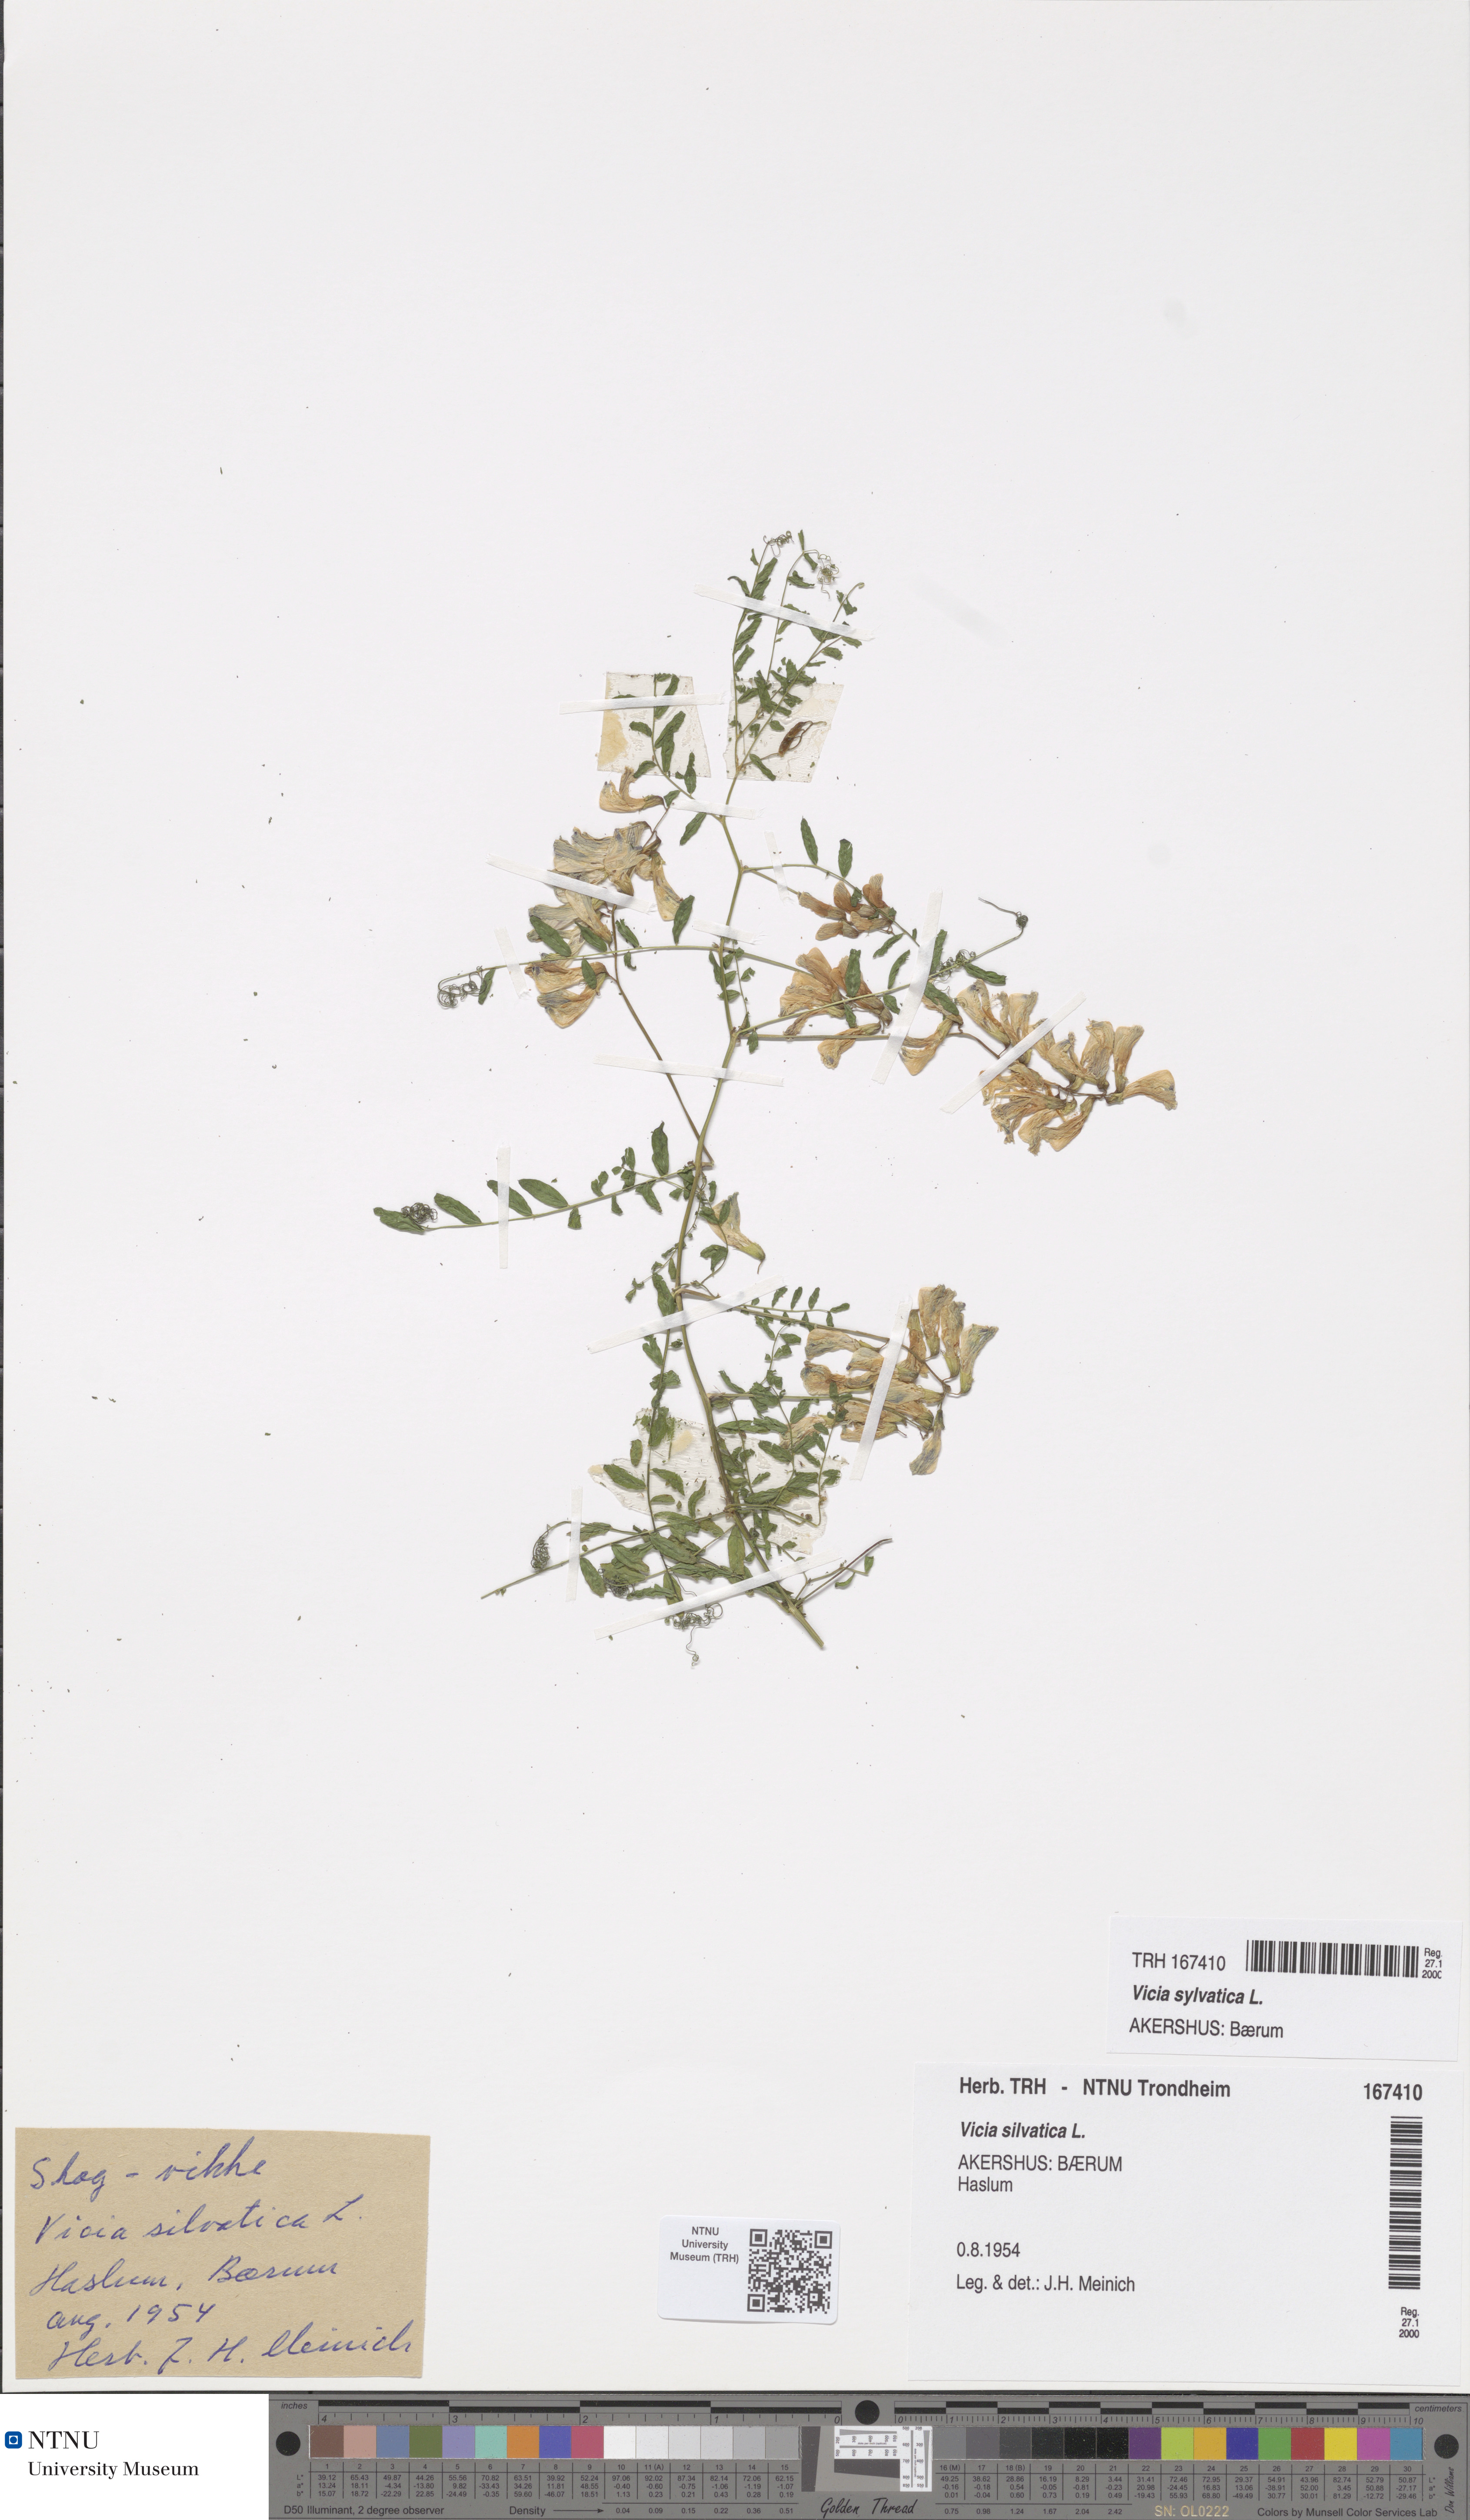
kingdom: Plantae
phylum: Tracheophyta
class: Magnoliopsida
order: Fabales
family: Fabaceae
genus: Vicia
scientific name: Vicia sylvatica
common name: Wood vetch
